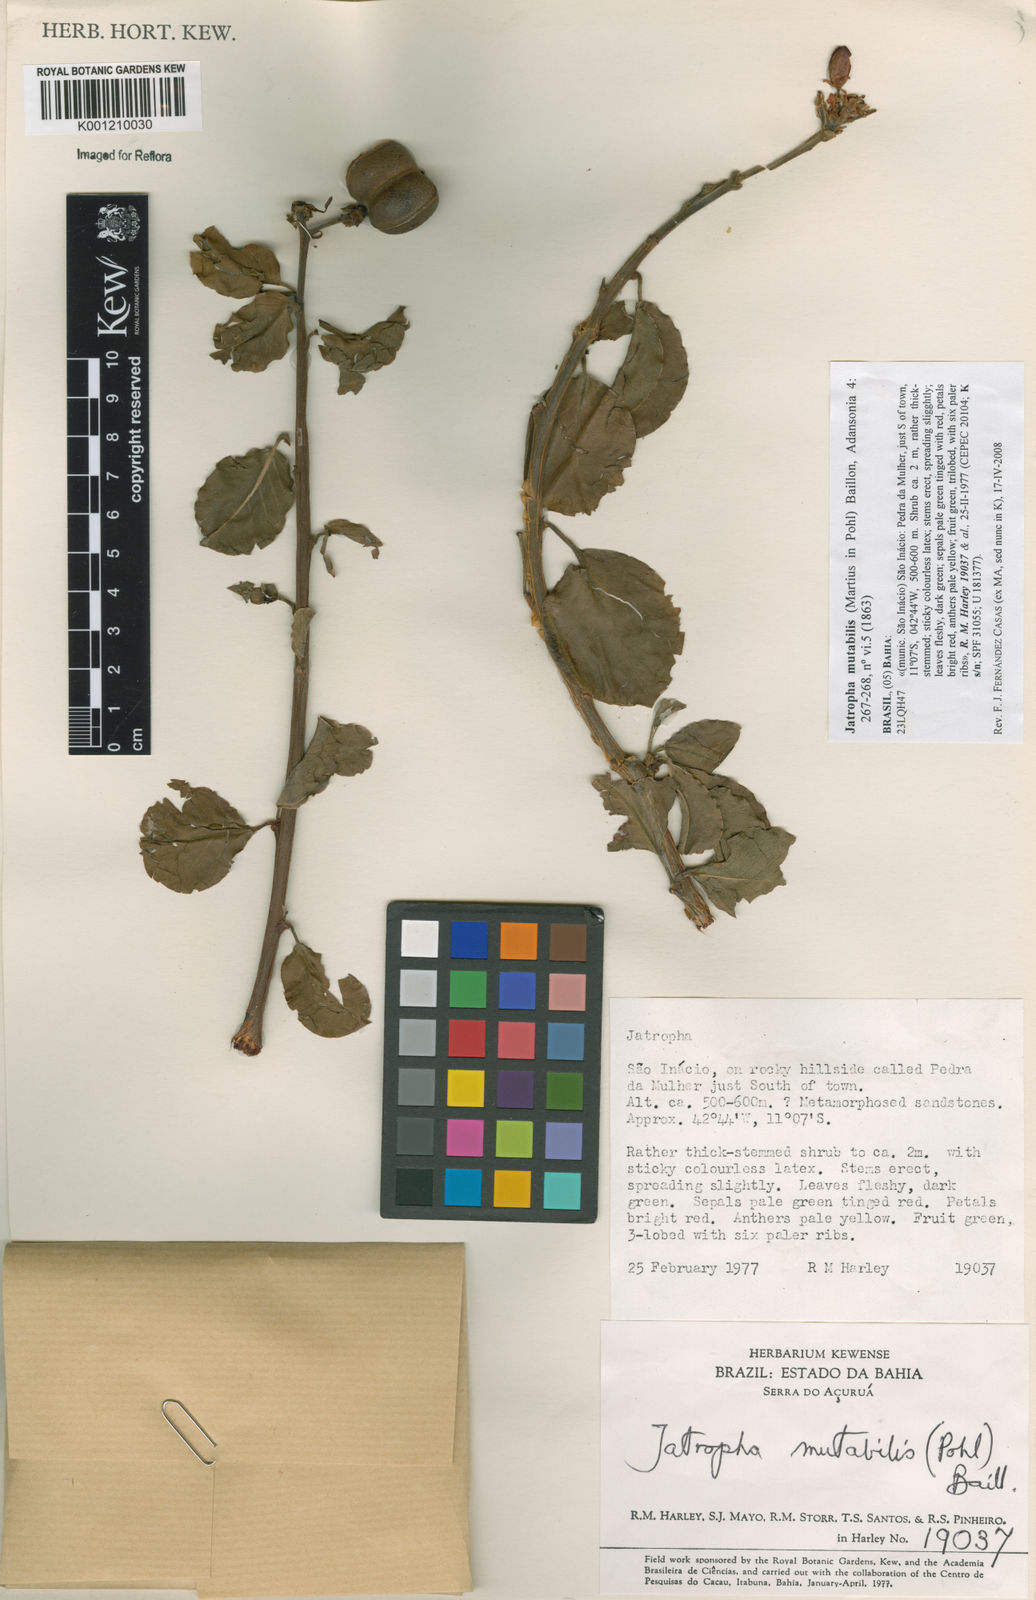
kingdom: Plantae
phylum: Tracheophyta
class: Magnoliopsida
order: Malpighiales
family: Euphorbiaceae
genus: Jatropha
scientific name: Jatropha mutabilis
